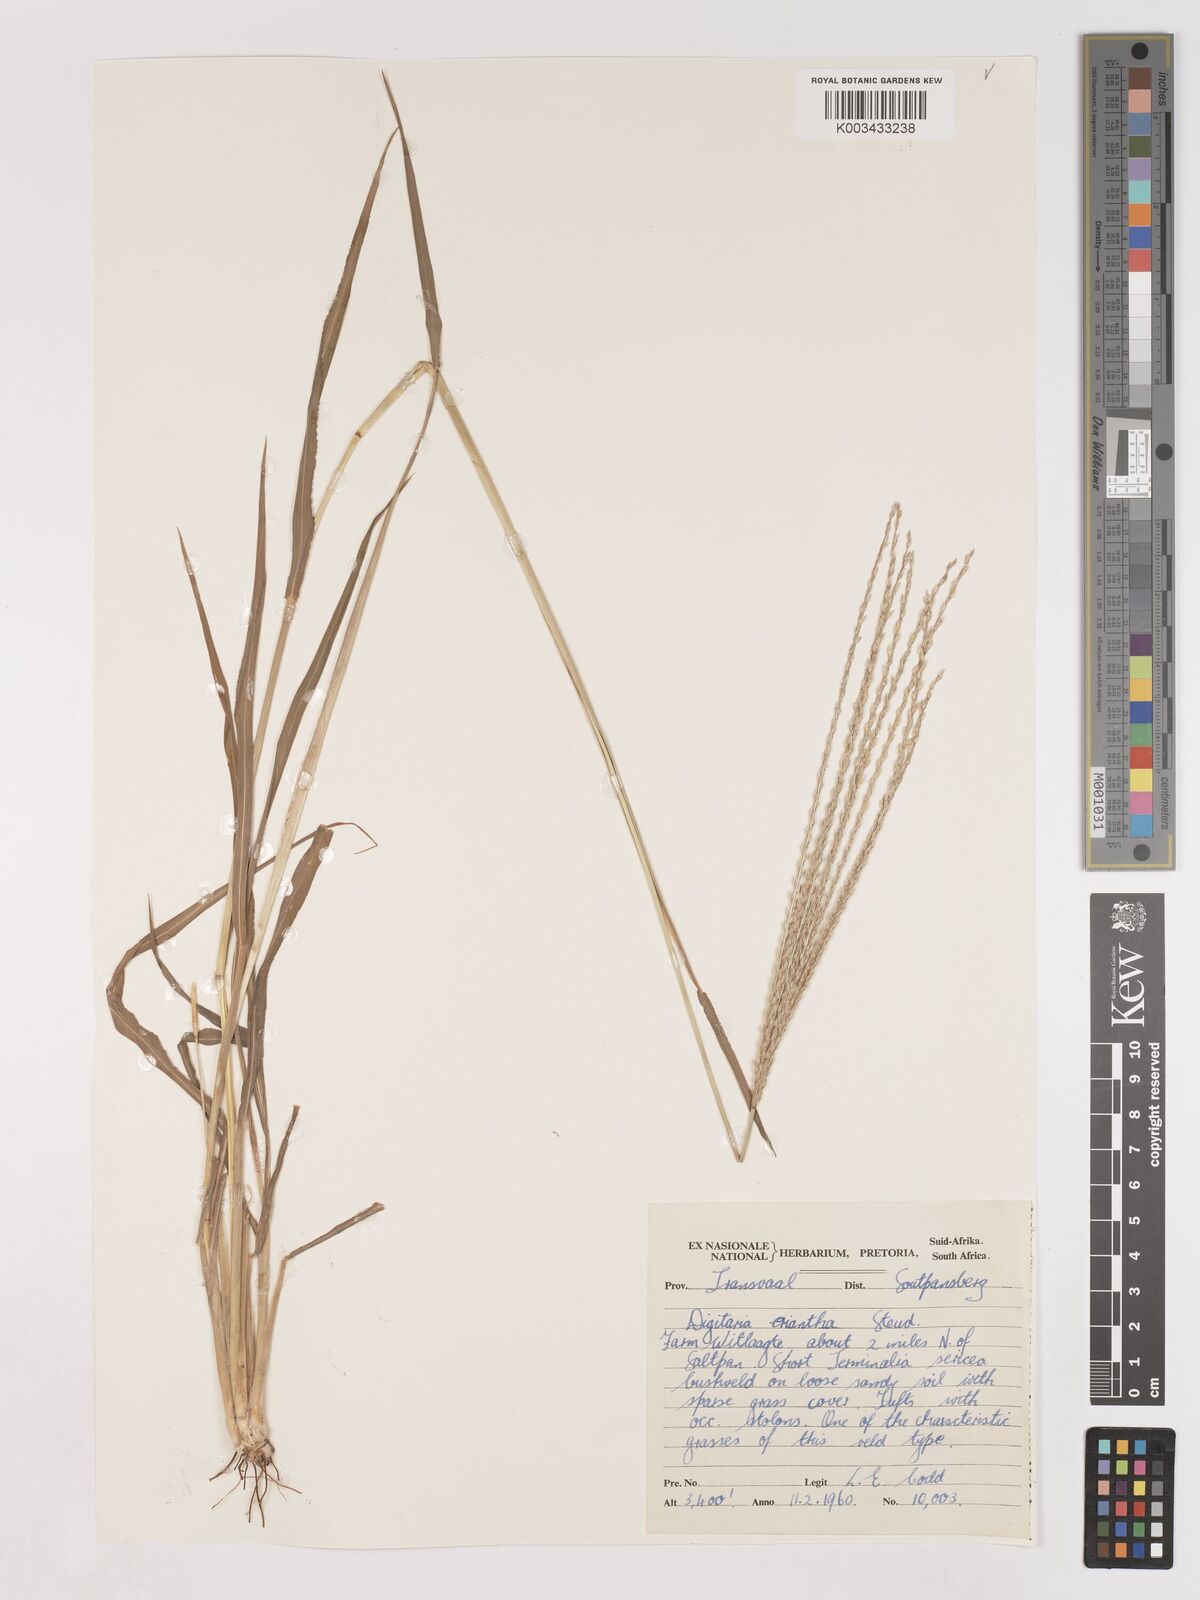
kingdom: Plantae
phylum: Tracheophyta
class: Liliopsida
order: Poales
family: Poaceae
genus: Digitaria
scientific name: Digitaria eriantha
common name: Digitgrass
